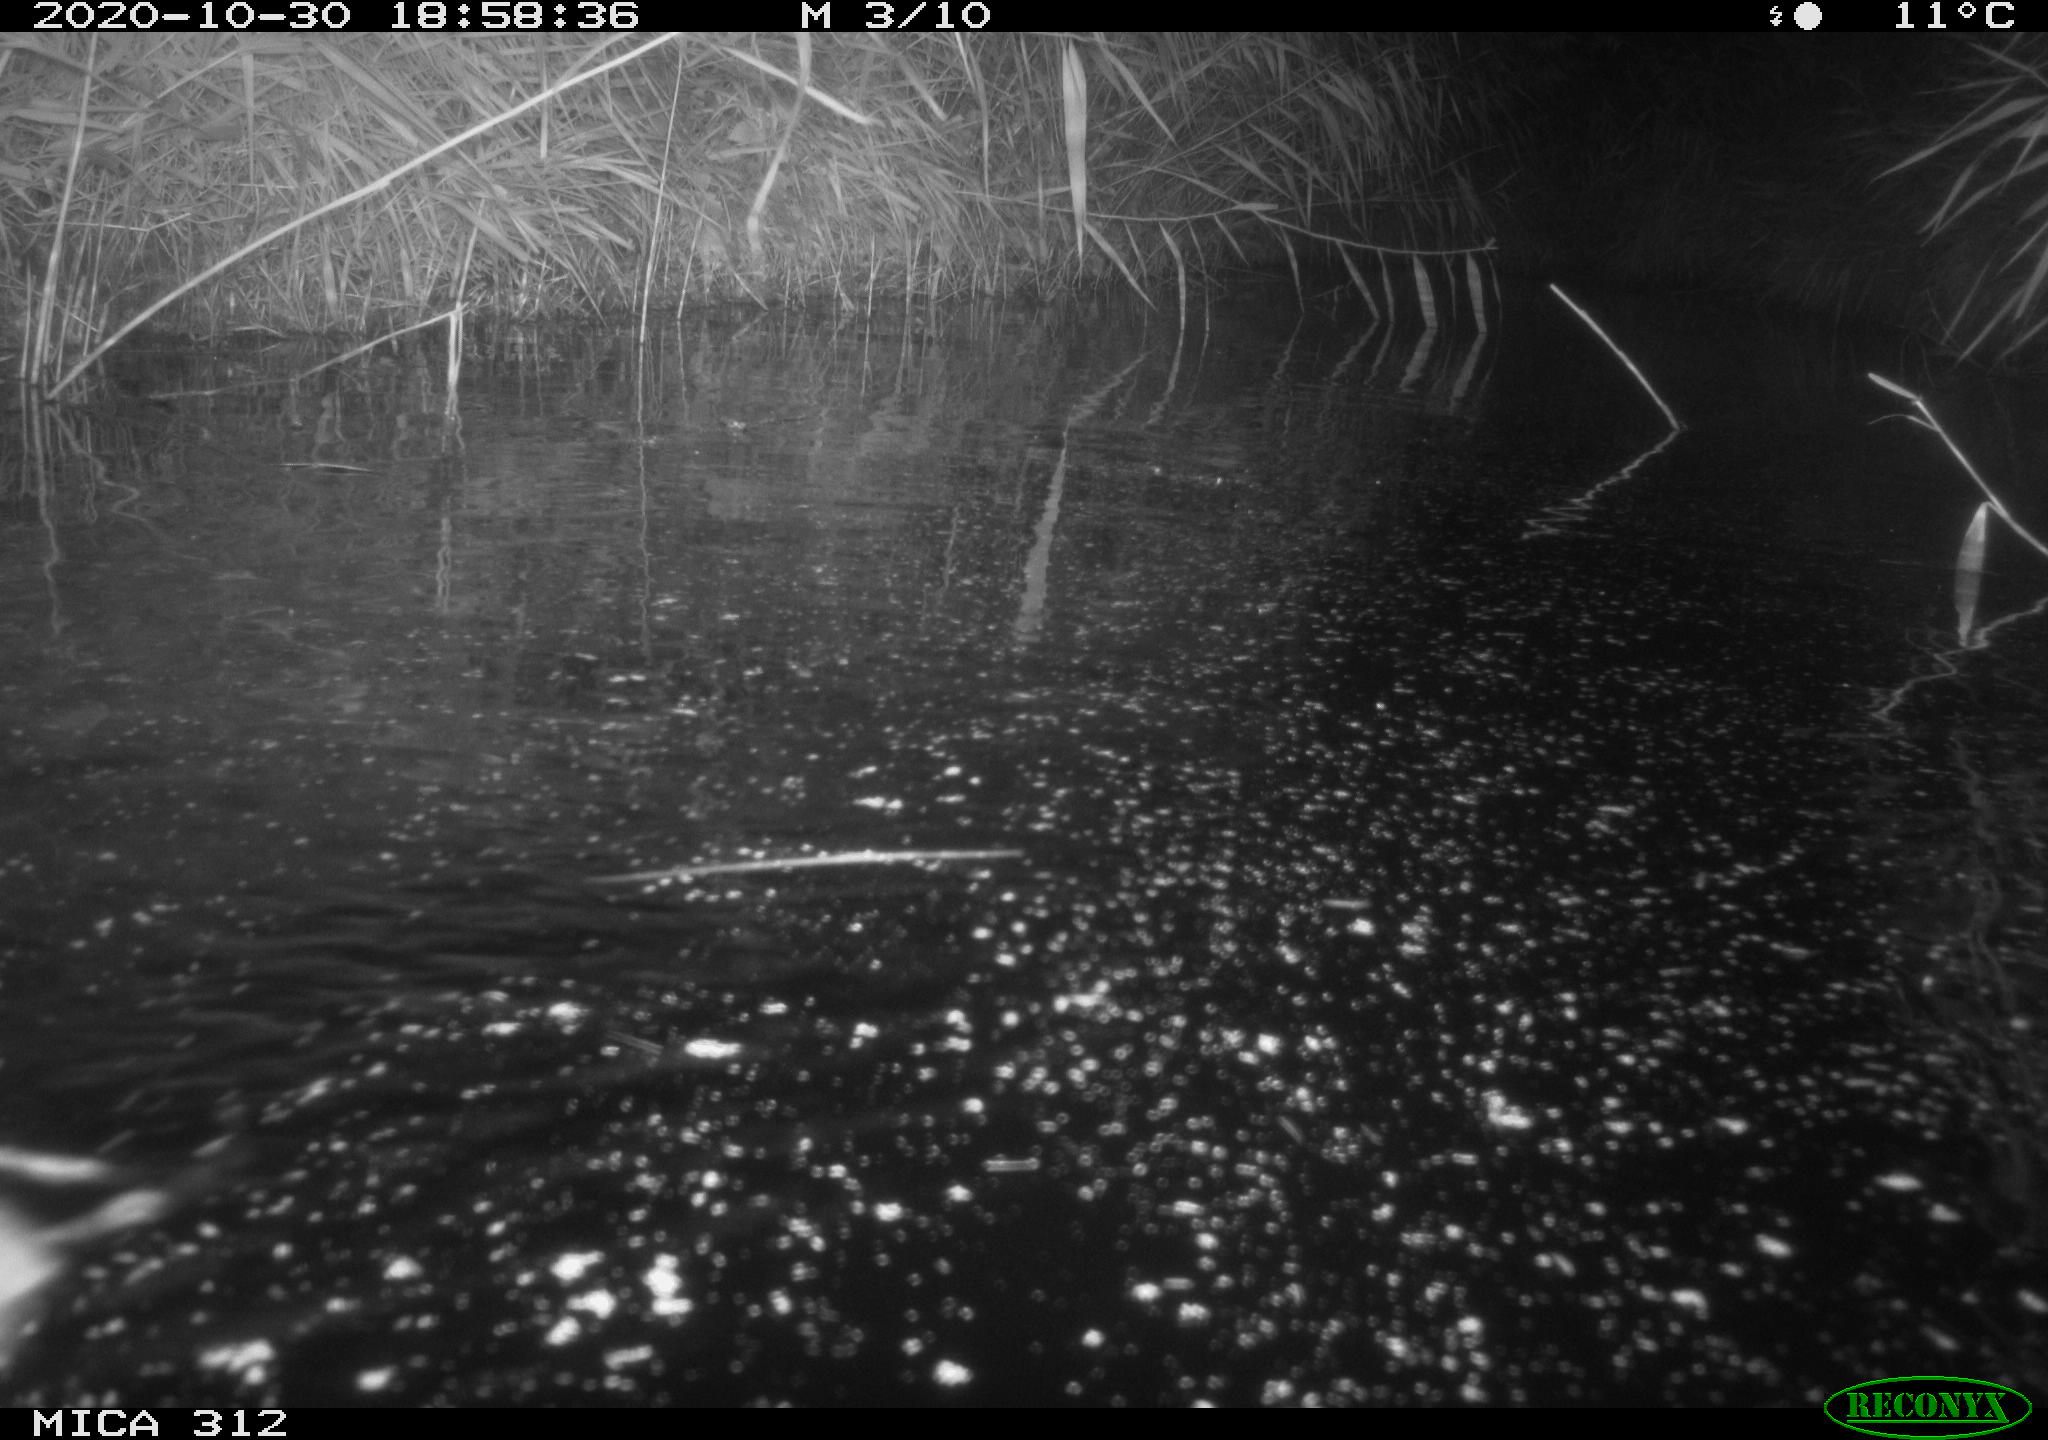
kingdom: Animalia
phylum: Chordata
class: Mammalia
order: Rodentia
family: Muridae
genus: Rattus
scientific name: Rattus norvegicus
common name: Brown rat
